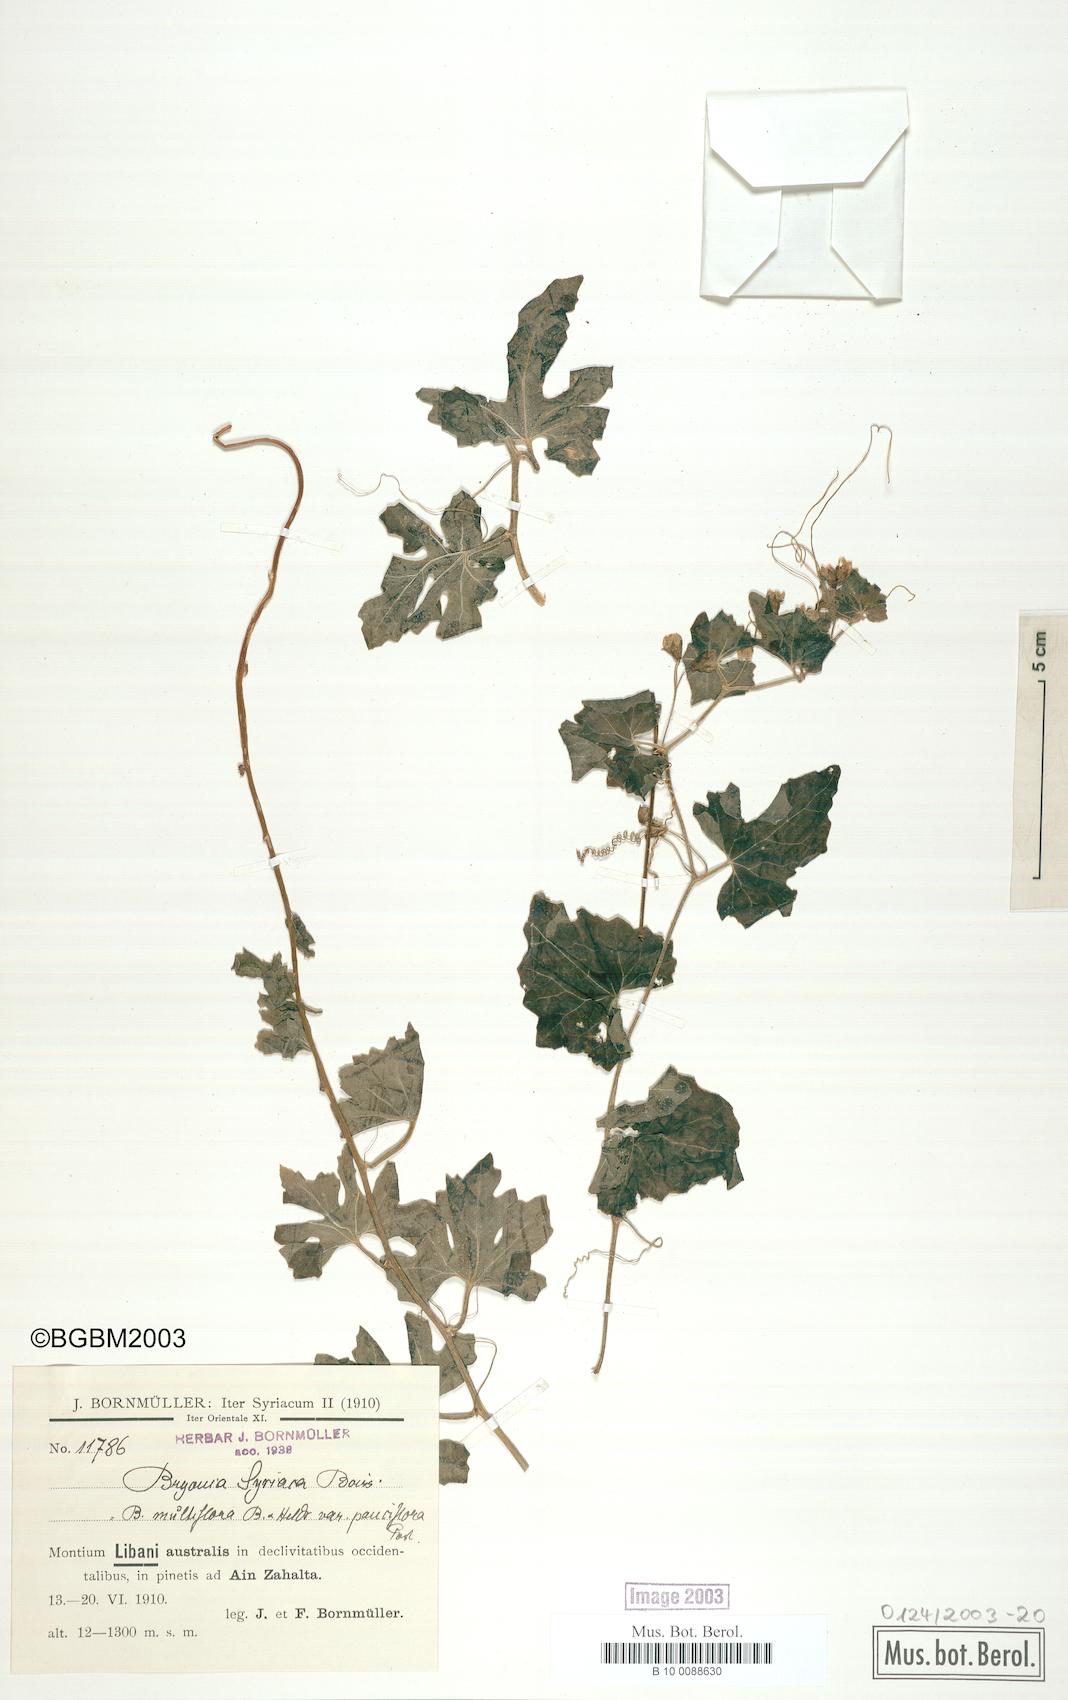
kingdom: Plantae
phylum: Tracheophyta
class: Magnoliopsida
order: Cucurbitales
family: Cucurbitaceae
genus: Bryonia
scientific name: Bryonia syriaca
